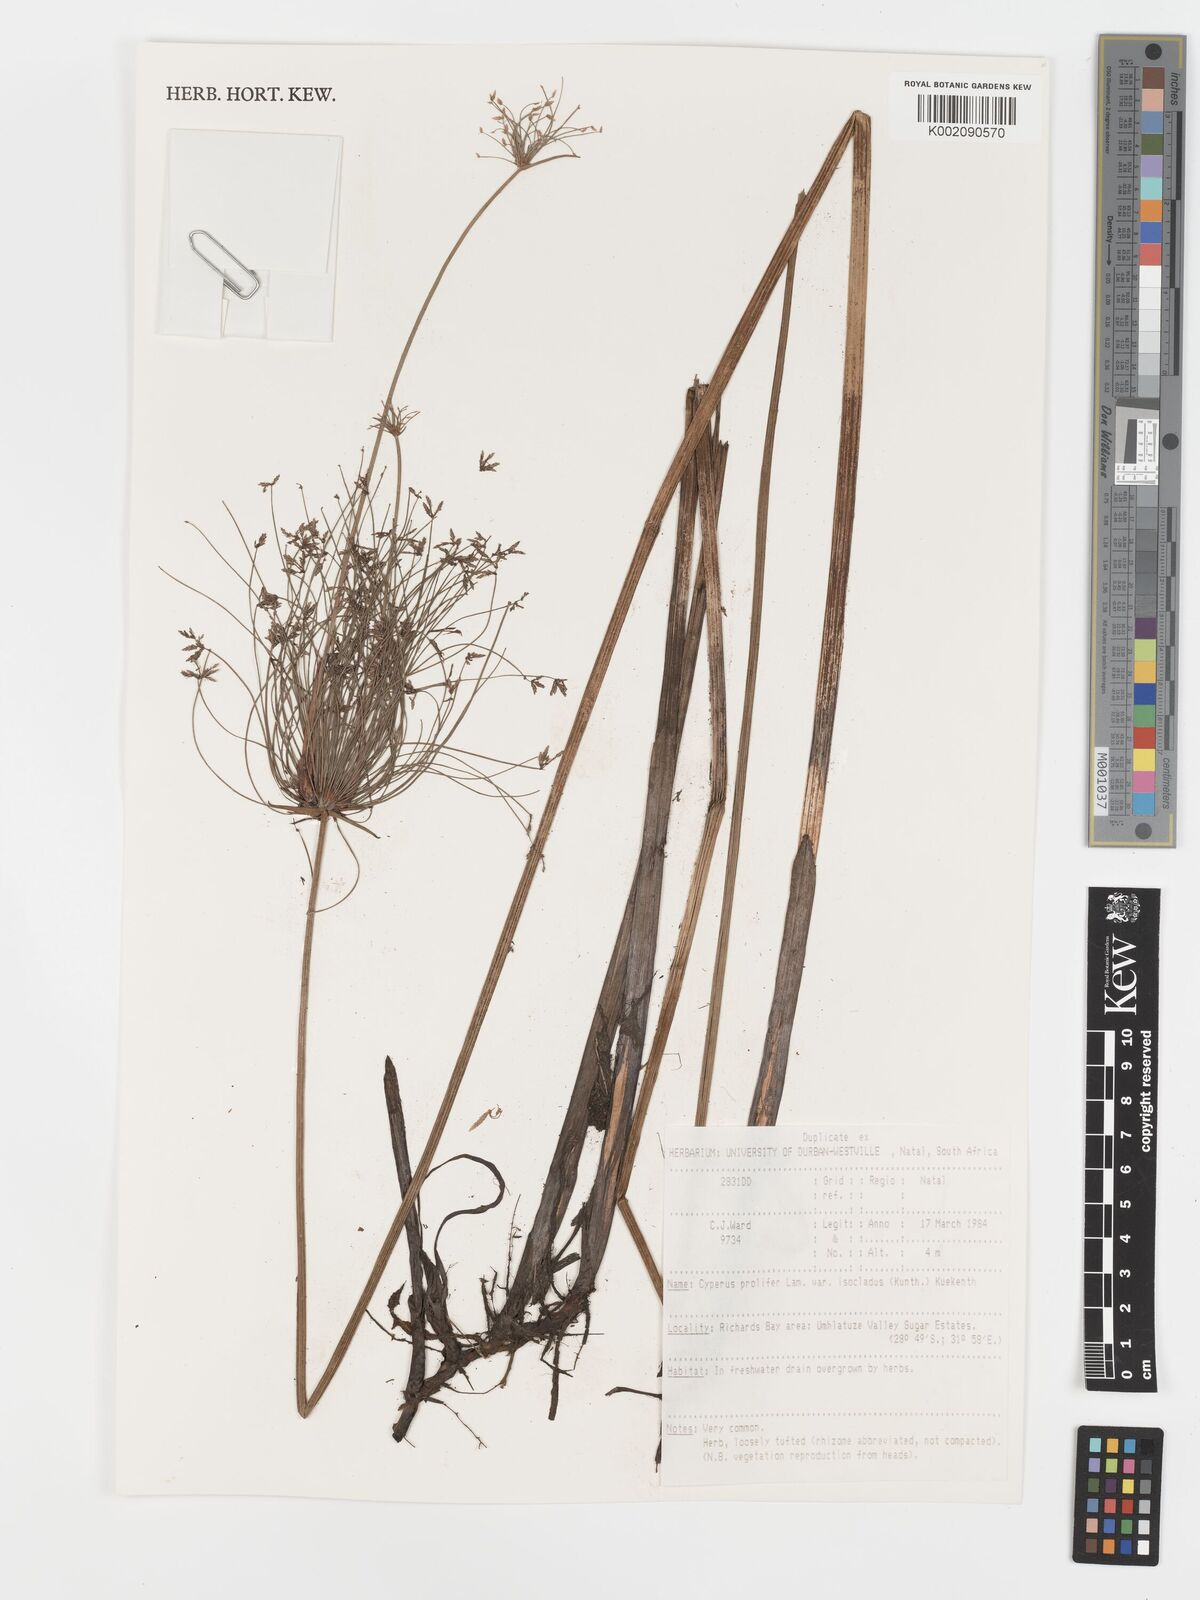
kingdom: Plantae
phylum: Tracheophyta
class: Liliopsida
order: Poales
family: Cyperaceae
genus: Cyperus
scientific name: Cyperus prolifer
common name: Miniature flatsedge
